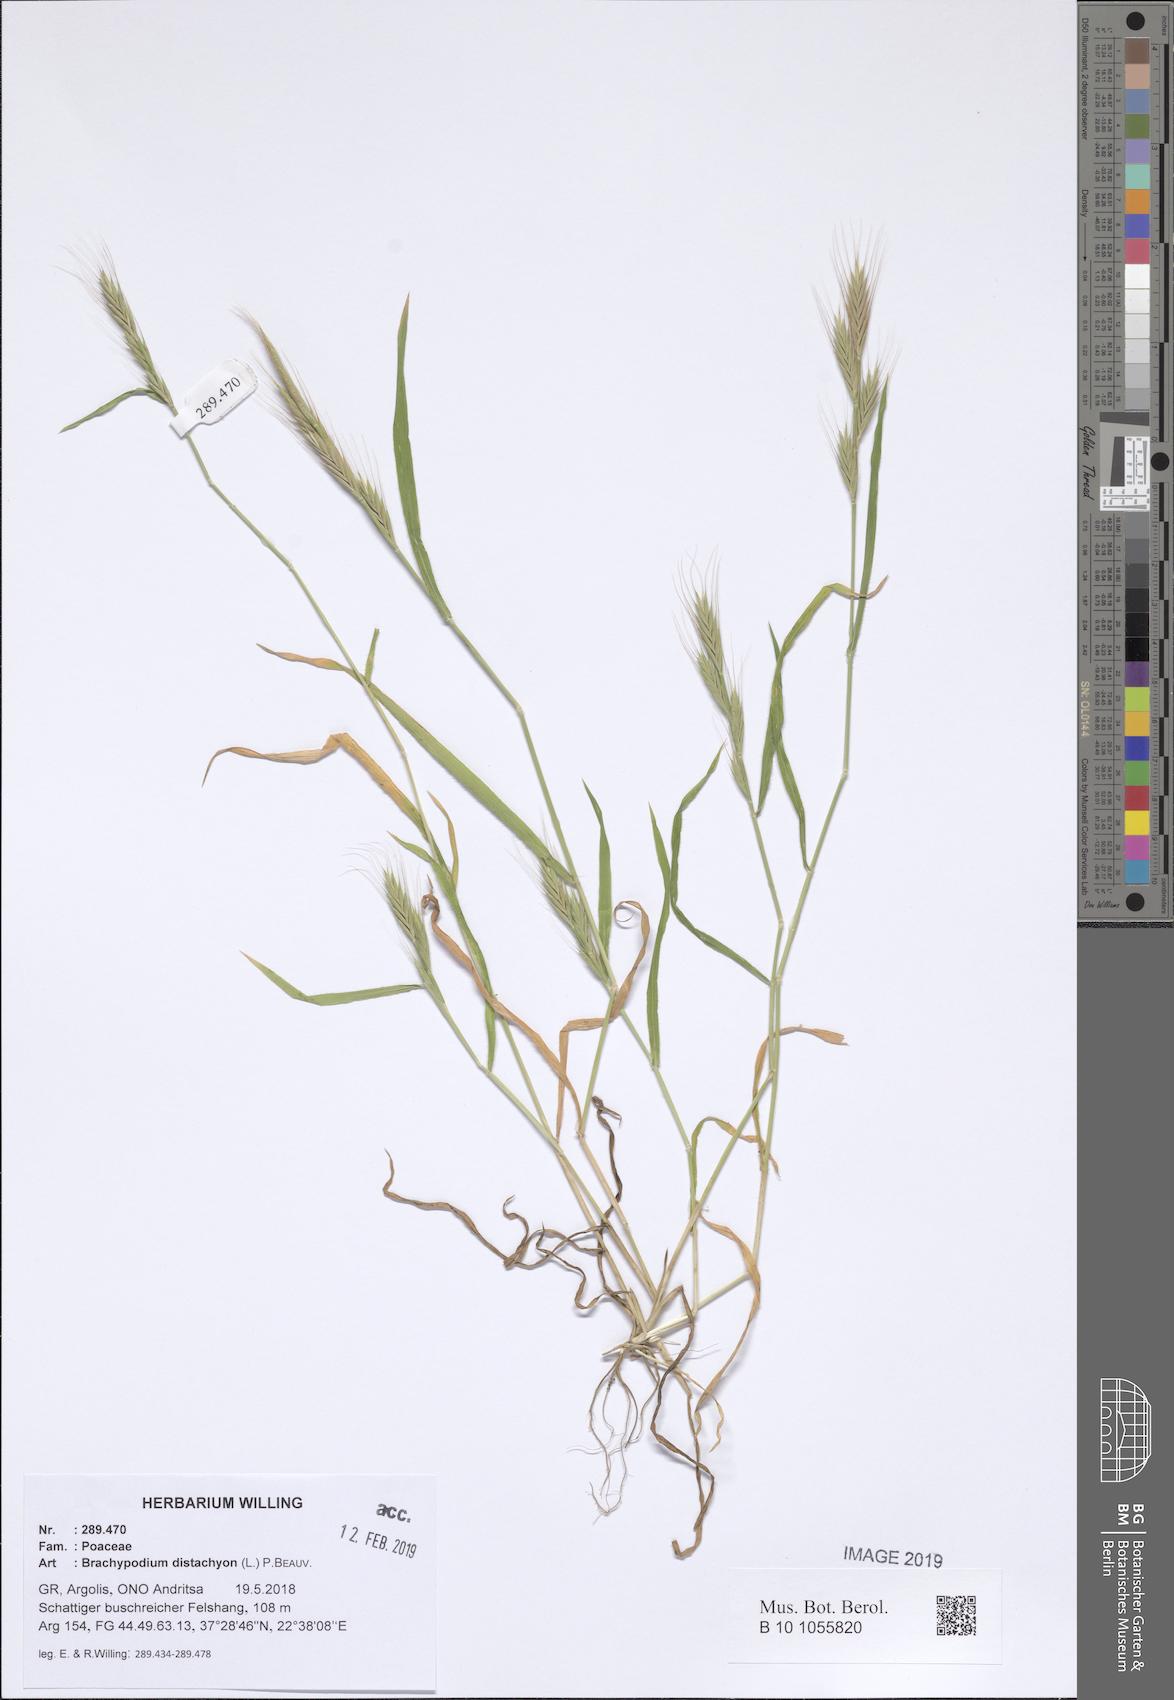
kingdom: Plantae
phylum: Tracheophyta
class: Liliopsida
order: Poales
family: Poaceae
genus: Brachypodium
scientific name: Brachypodium distachyon
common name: Stiff brome
